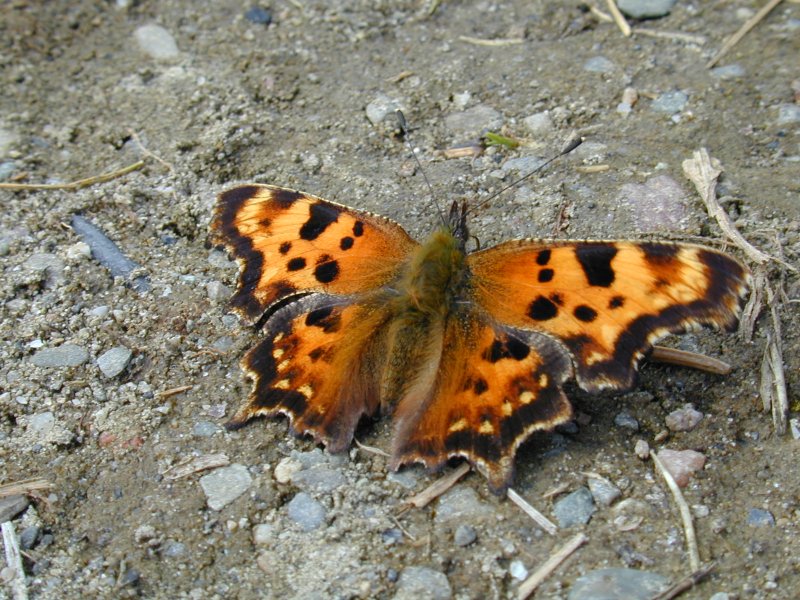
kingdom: Animalia
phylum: Arthropoda
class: Insecta
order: Lepidoptera
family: Nymphalidae
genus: Polygonia
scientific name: Polygonia satyrus
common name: Satyr Comma
